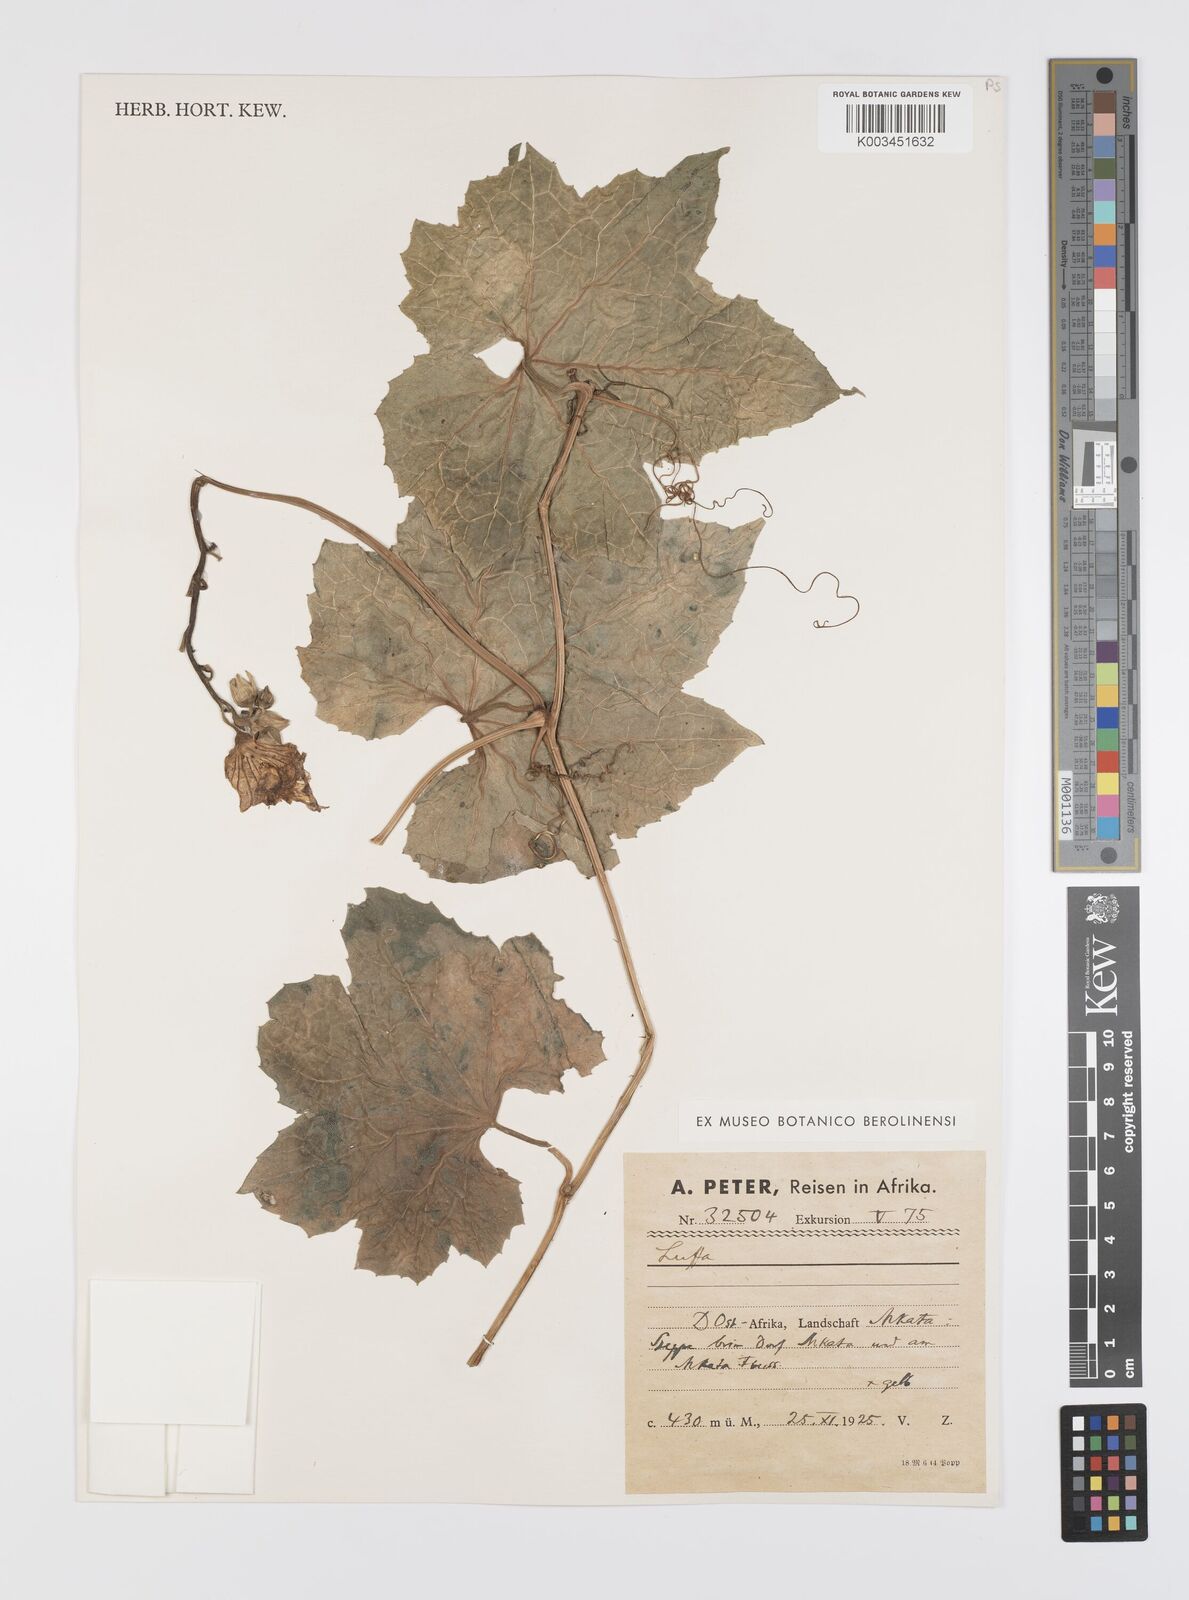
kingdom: Plantae
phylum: Tracheophyta
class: Magnoliopsida
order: Cucurbitales
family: Cucurbitaceae
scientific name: Cucurbitaceae
